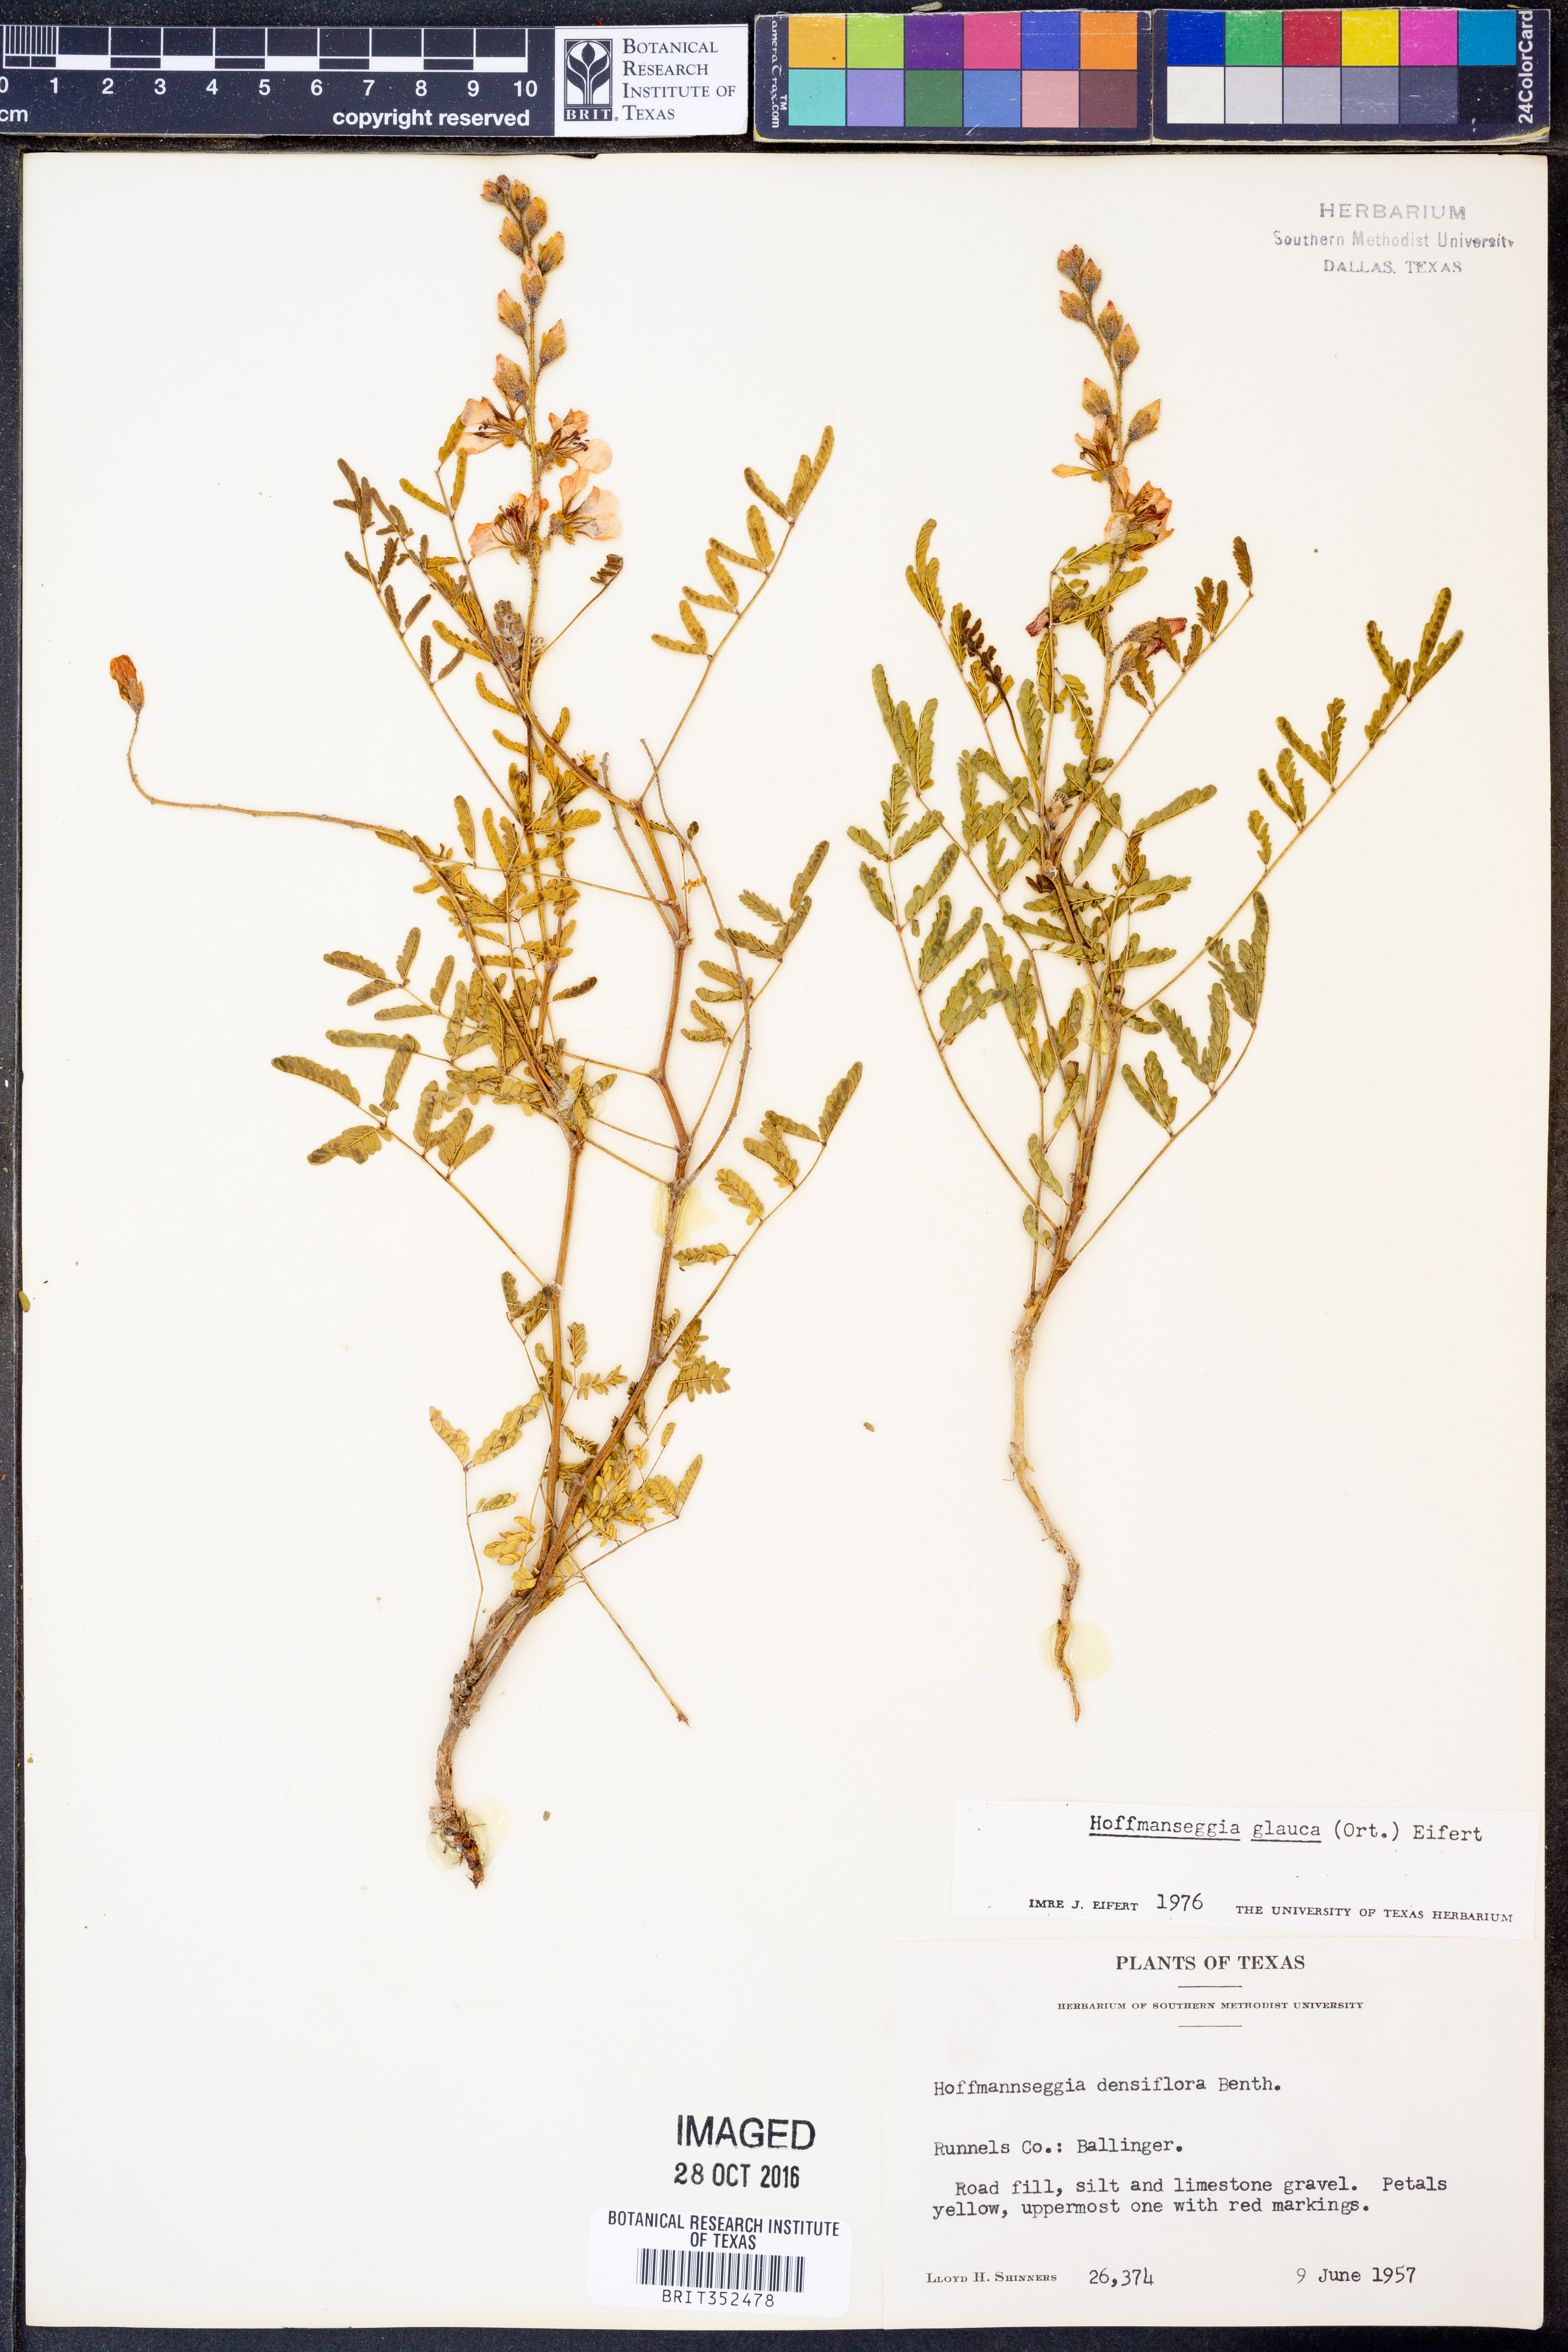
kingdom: Plantae
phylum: Tracheophyta
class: Magnoliopsida
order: Fabales
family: Fabaceae
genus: Hoffmannseggia
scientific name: Hoffmannseggia glauca
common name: Pignut
